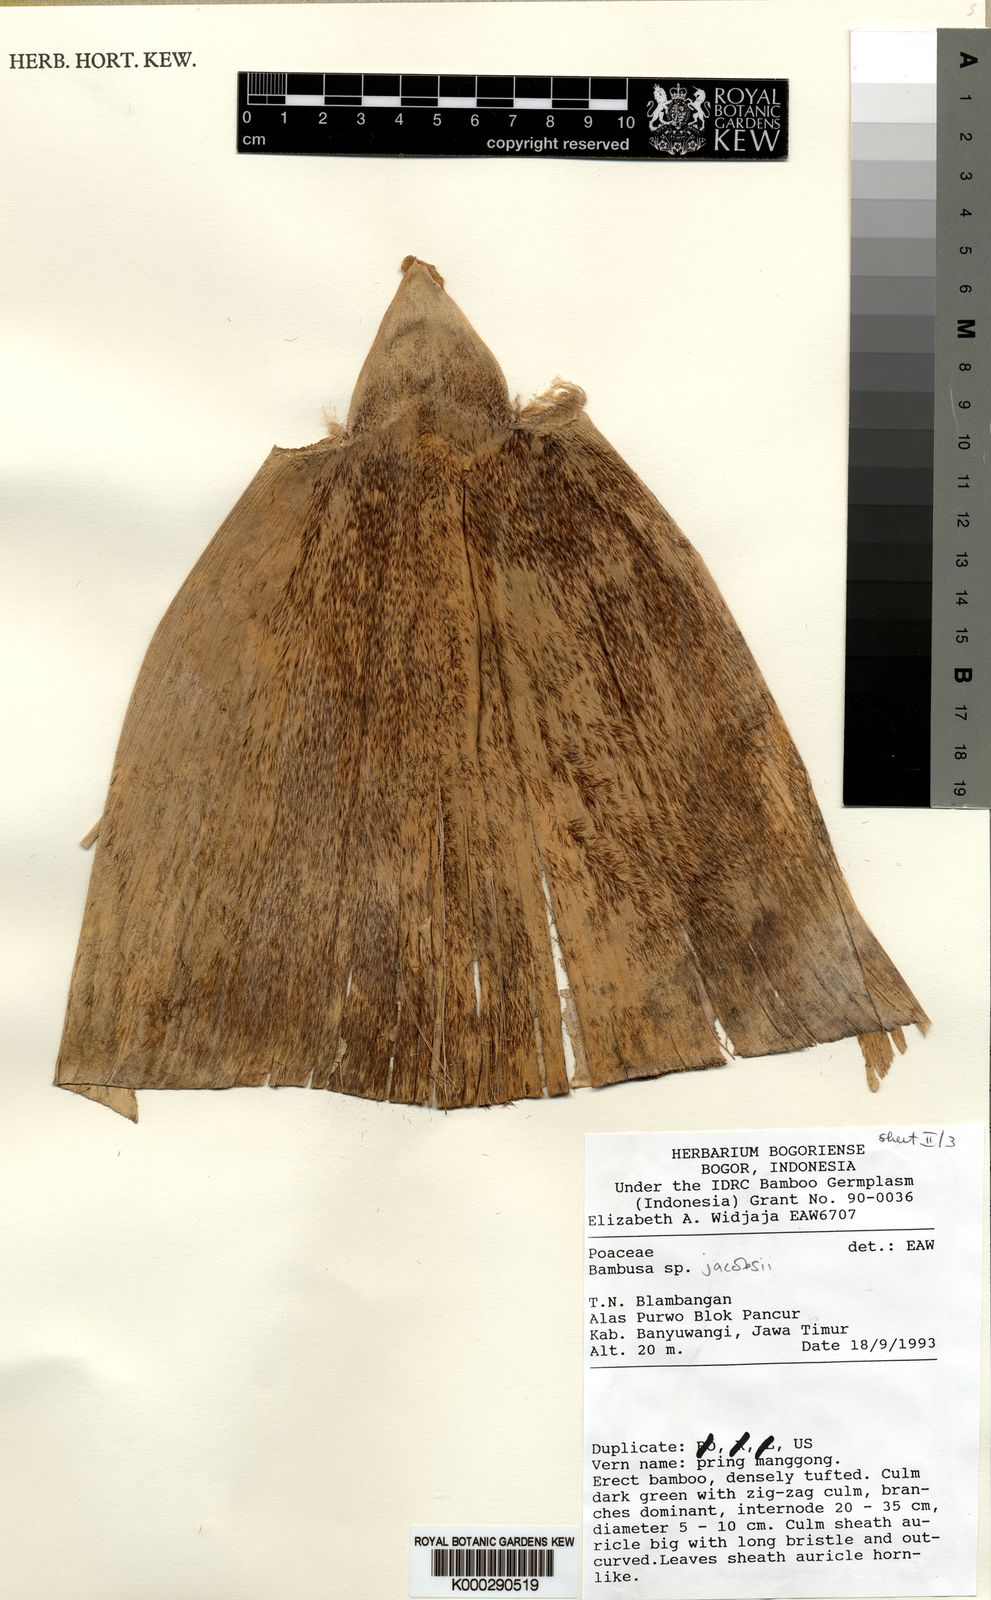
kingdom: Plantae
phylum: Tracheophyta
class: Liliopsida
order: Poales
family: Poaceae
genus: Bambusa
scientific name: Bambusa
